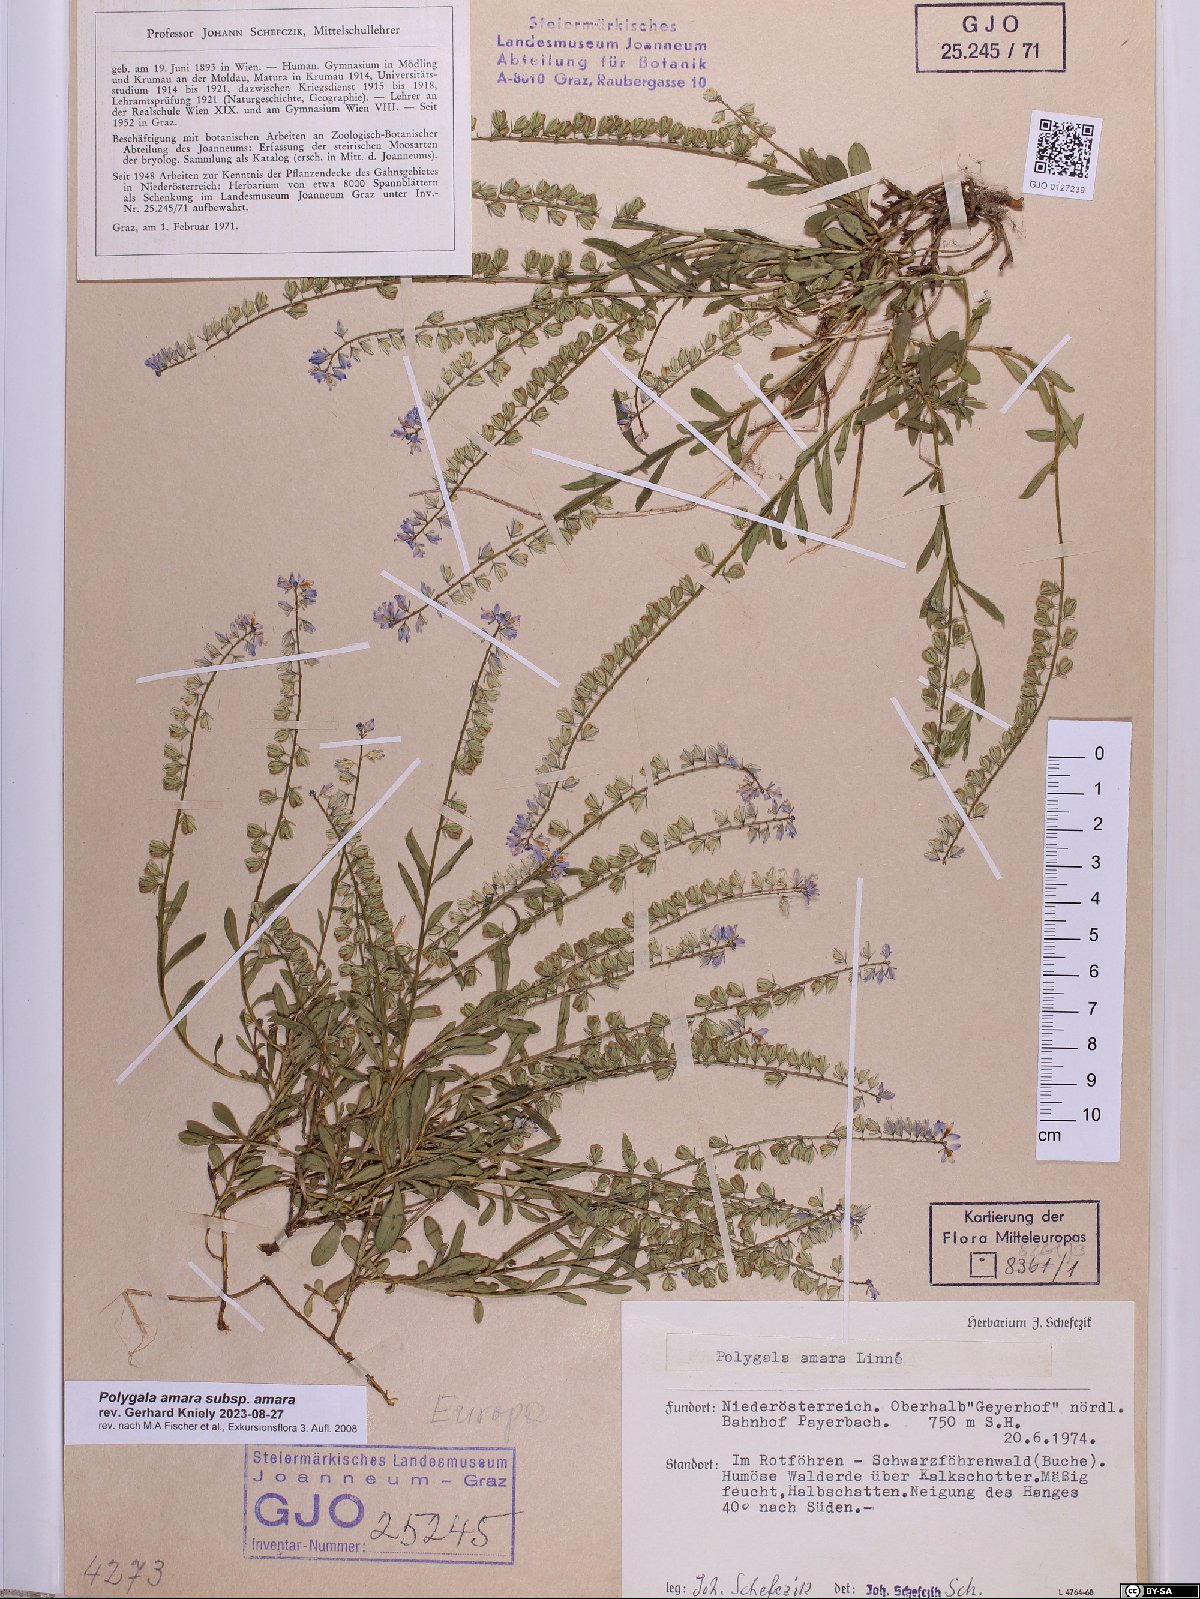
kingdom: Plantae
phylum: Tracheophyta
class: Magnoliopsida
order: Fabales
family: Polygalaceae
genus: Polygala
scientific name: Polygala amara
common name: Milkwort
